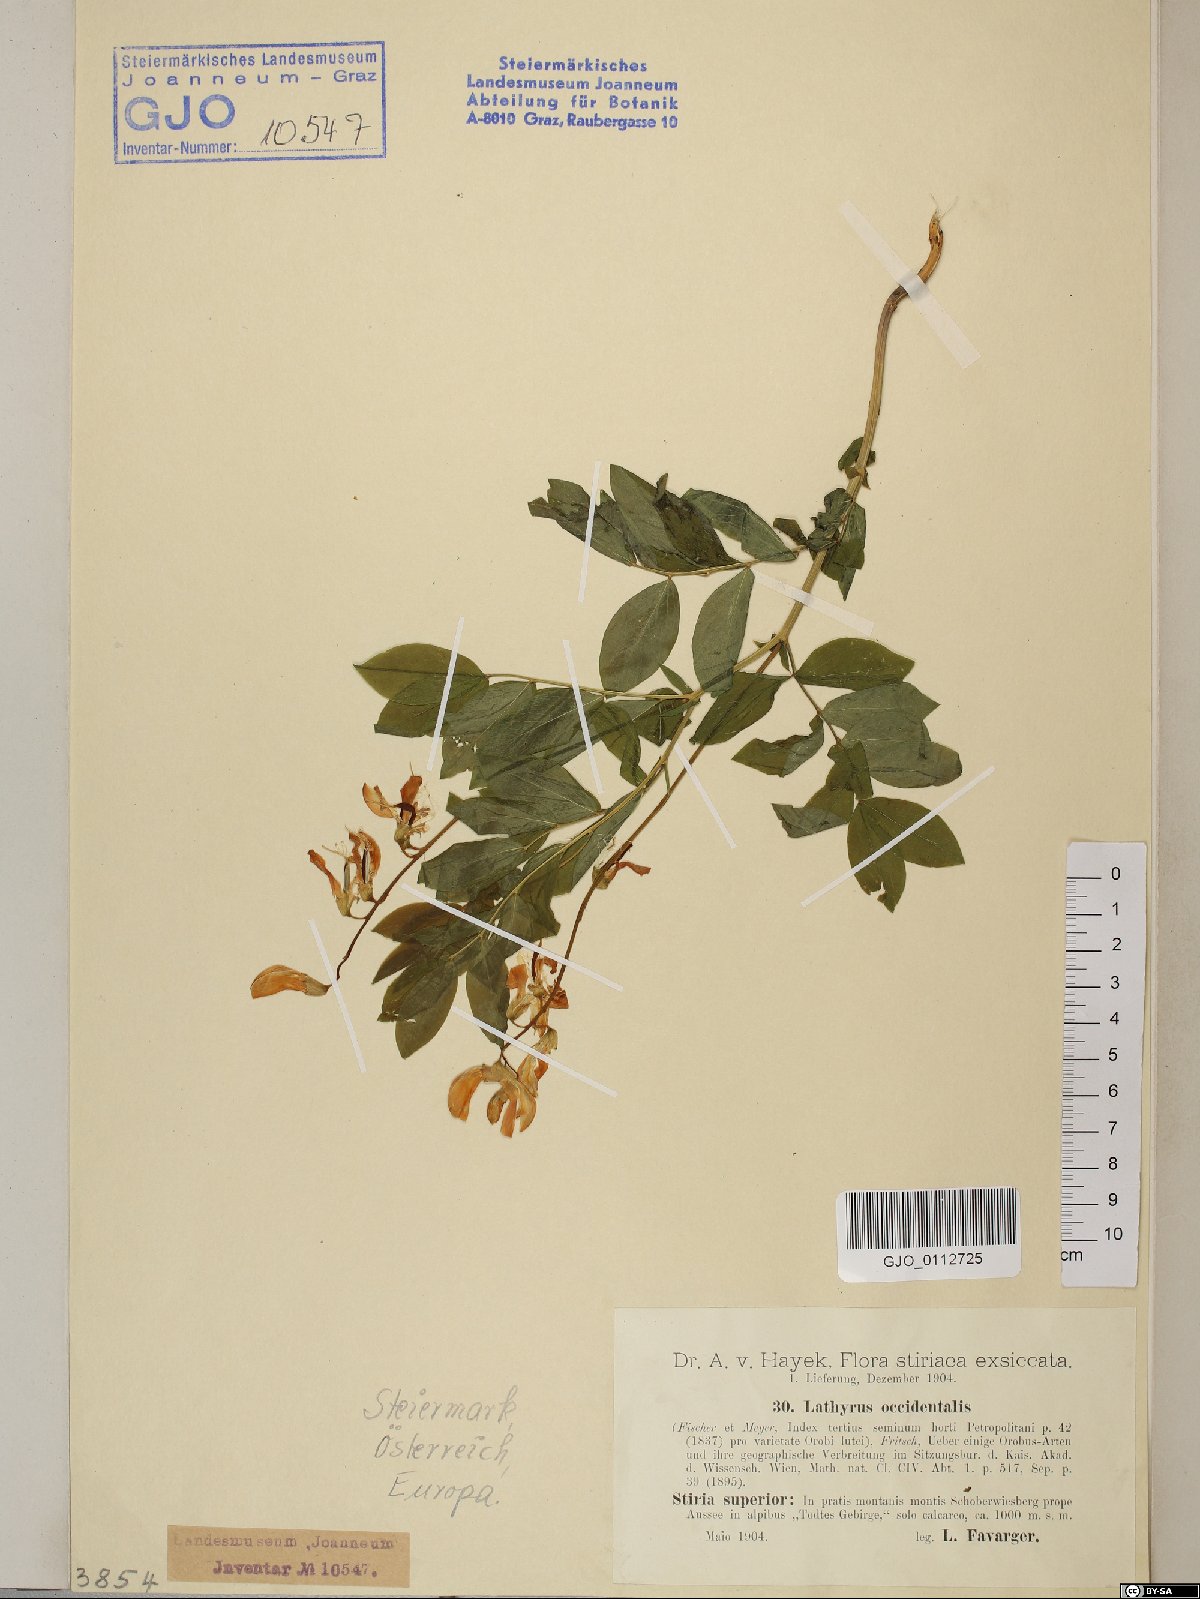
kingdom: Plantae
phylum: Tracheophyta
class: Magnoliopsida
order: Fabales
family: Fabaceae
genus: Lathyrus
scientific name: Lathyrus laevigatus
